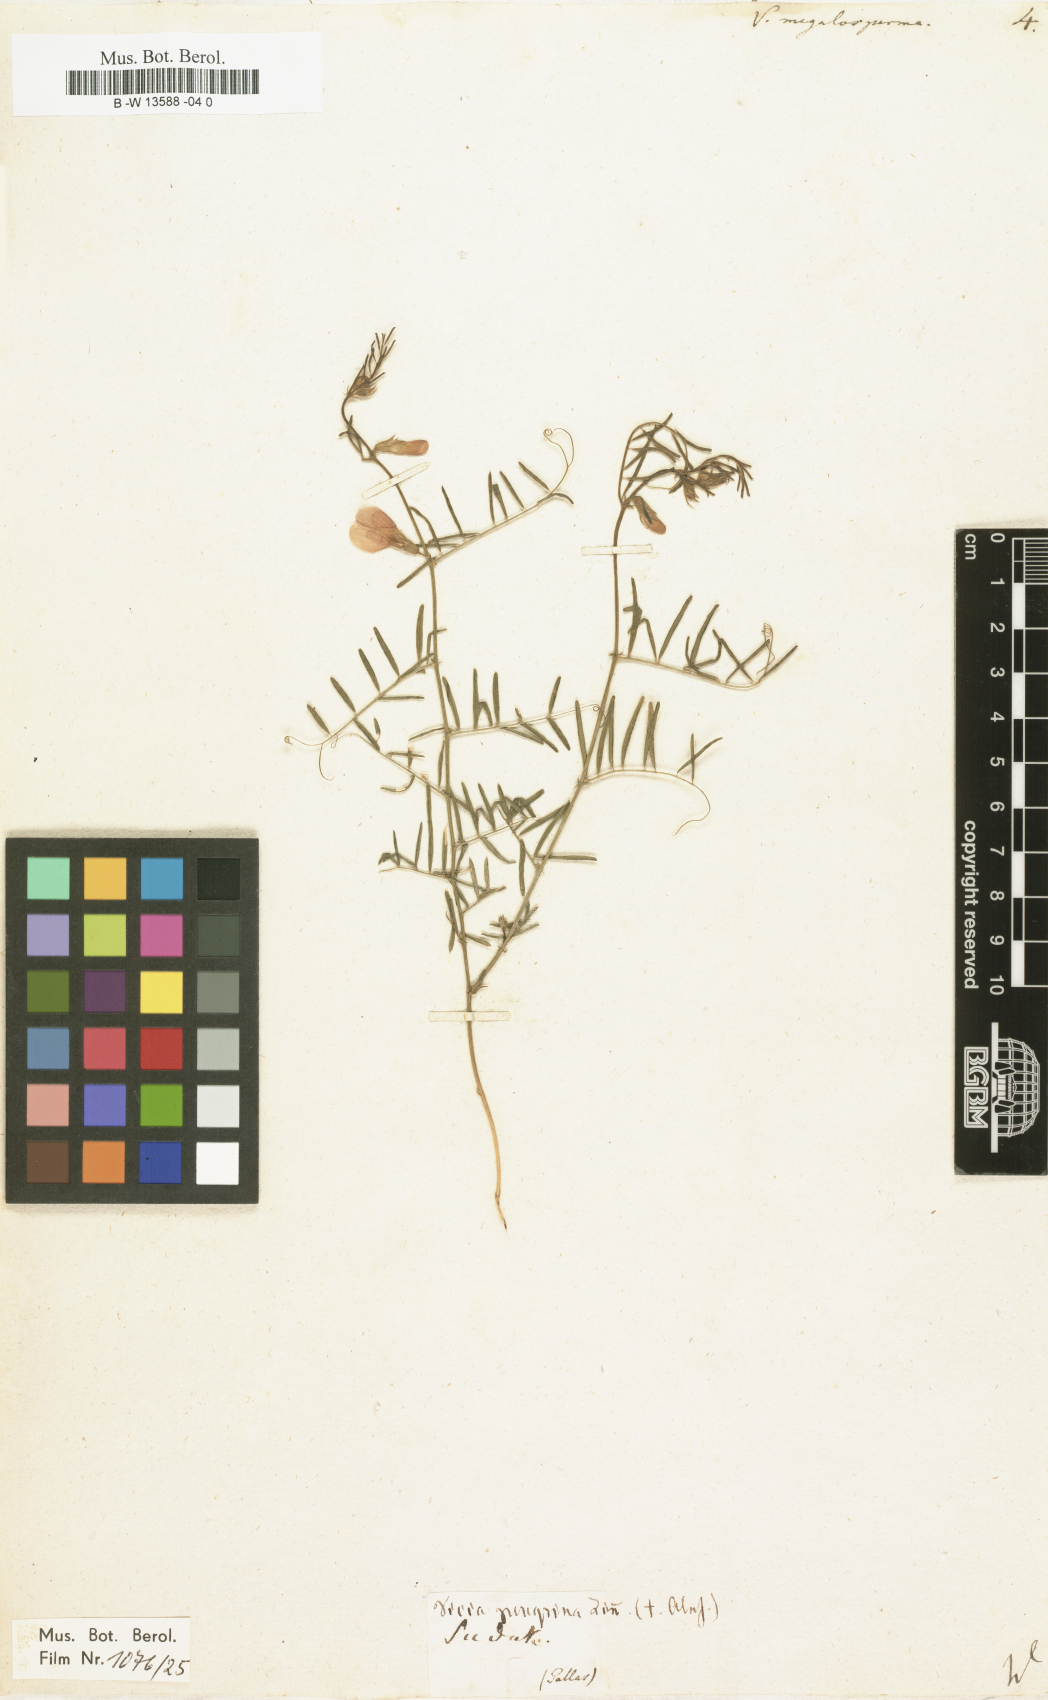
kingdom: Plantae
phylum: Tracheophyta
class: Magnoliopsida
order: Fabales
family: Fabaceae
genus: Vicia
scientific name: Vicia peregrina
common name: Broad-pod vetch
